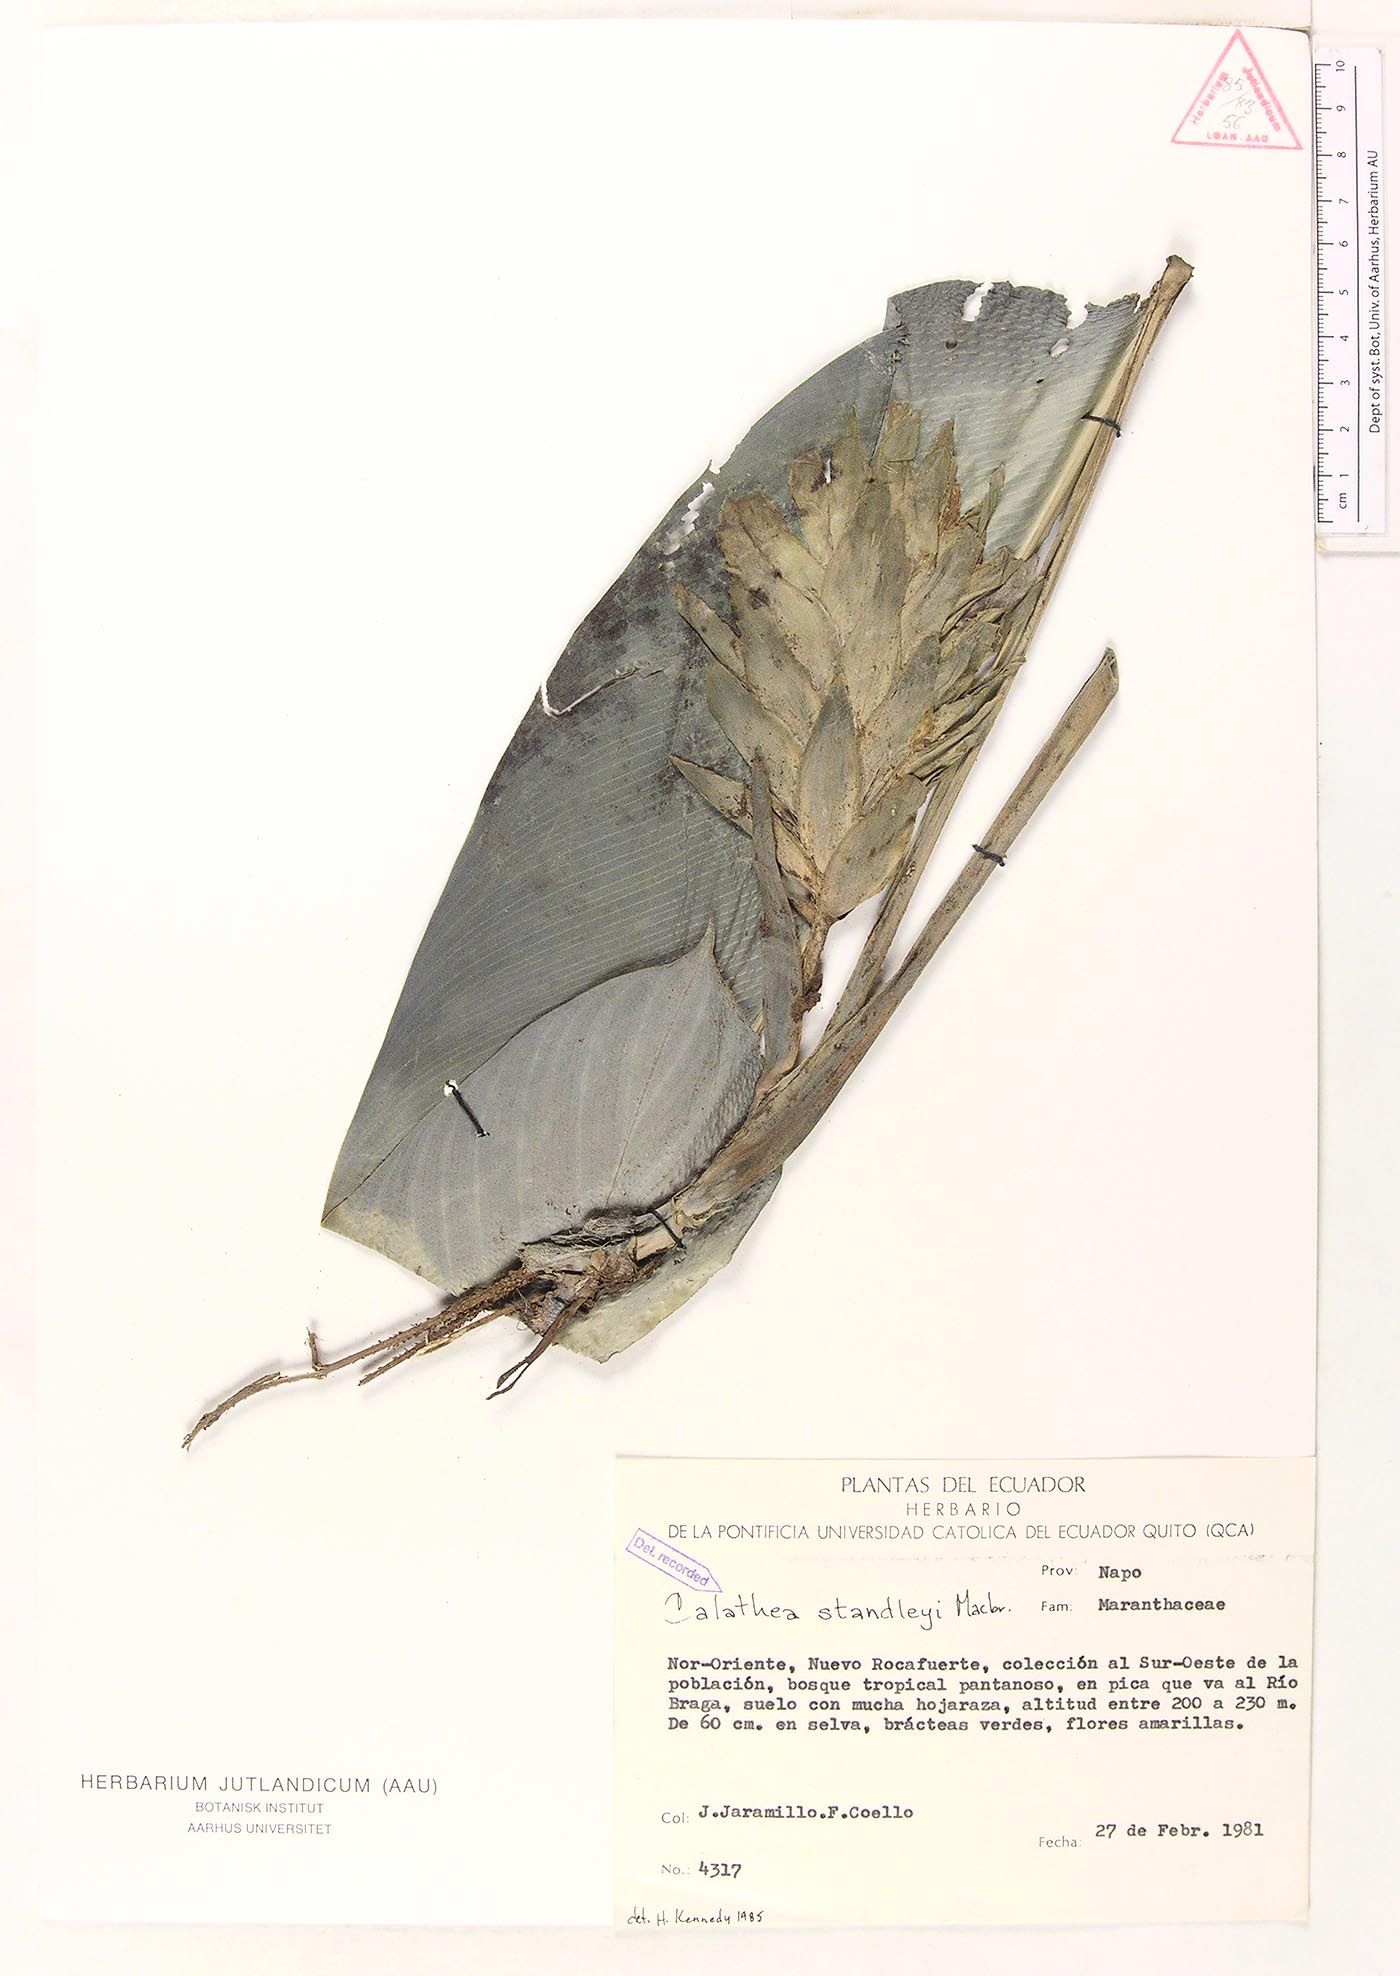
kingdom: Plantae
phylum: Tracheophyta
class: Liliopsida
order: Zingiberales
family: Marantaceae
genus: Goeppertia
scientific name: Goeppertia standleyi
